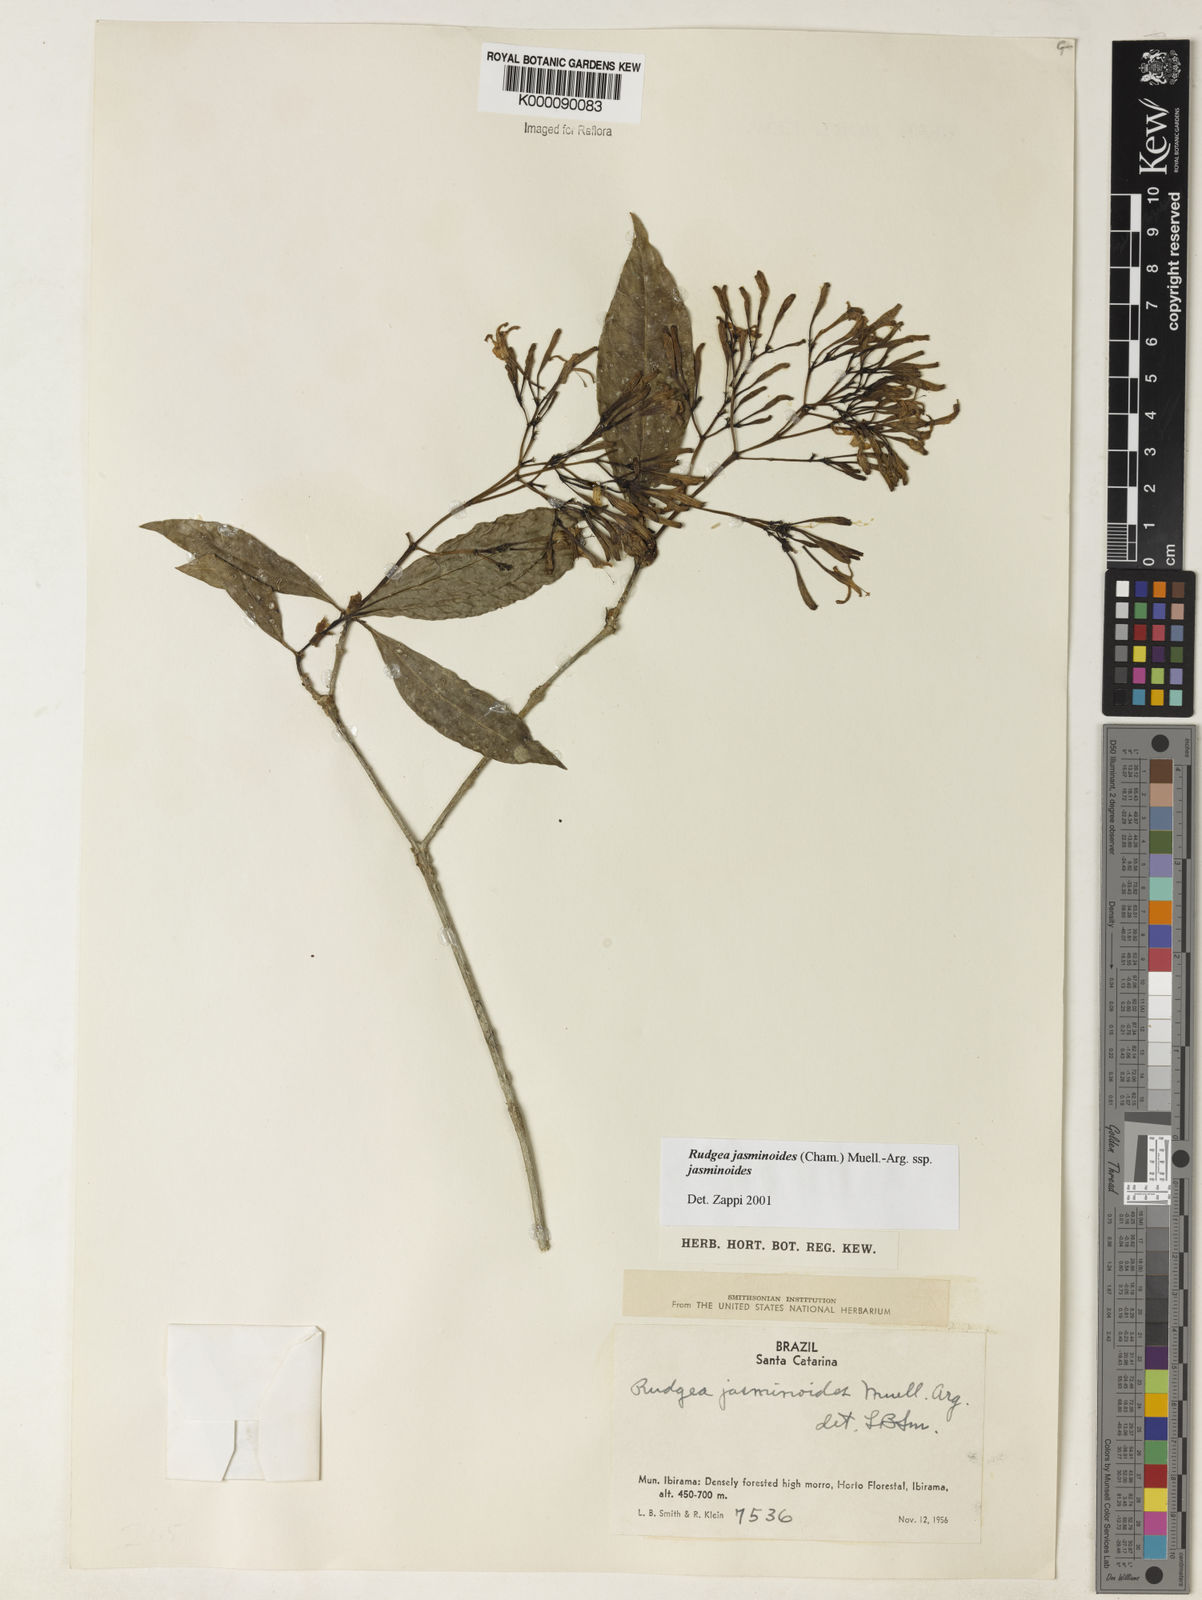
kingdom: Plantae
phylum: Tracheophyta
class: Magnoliopsida
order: Gentianales
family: Rubiaceae
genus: Rudgea
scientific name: Rudgea jasminoides
